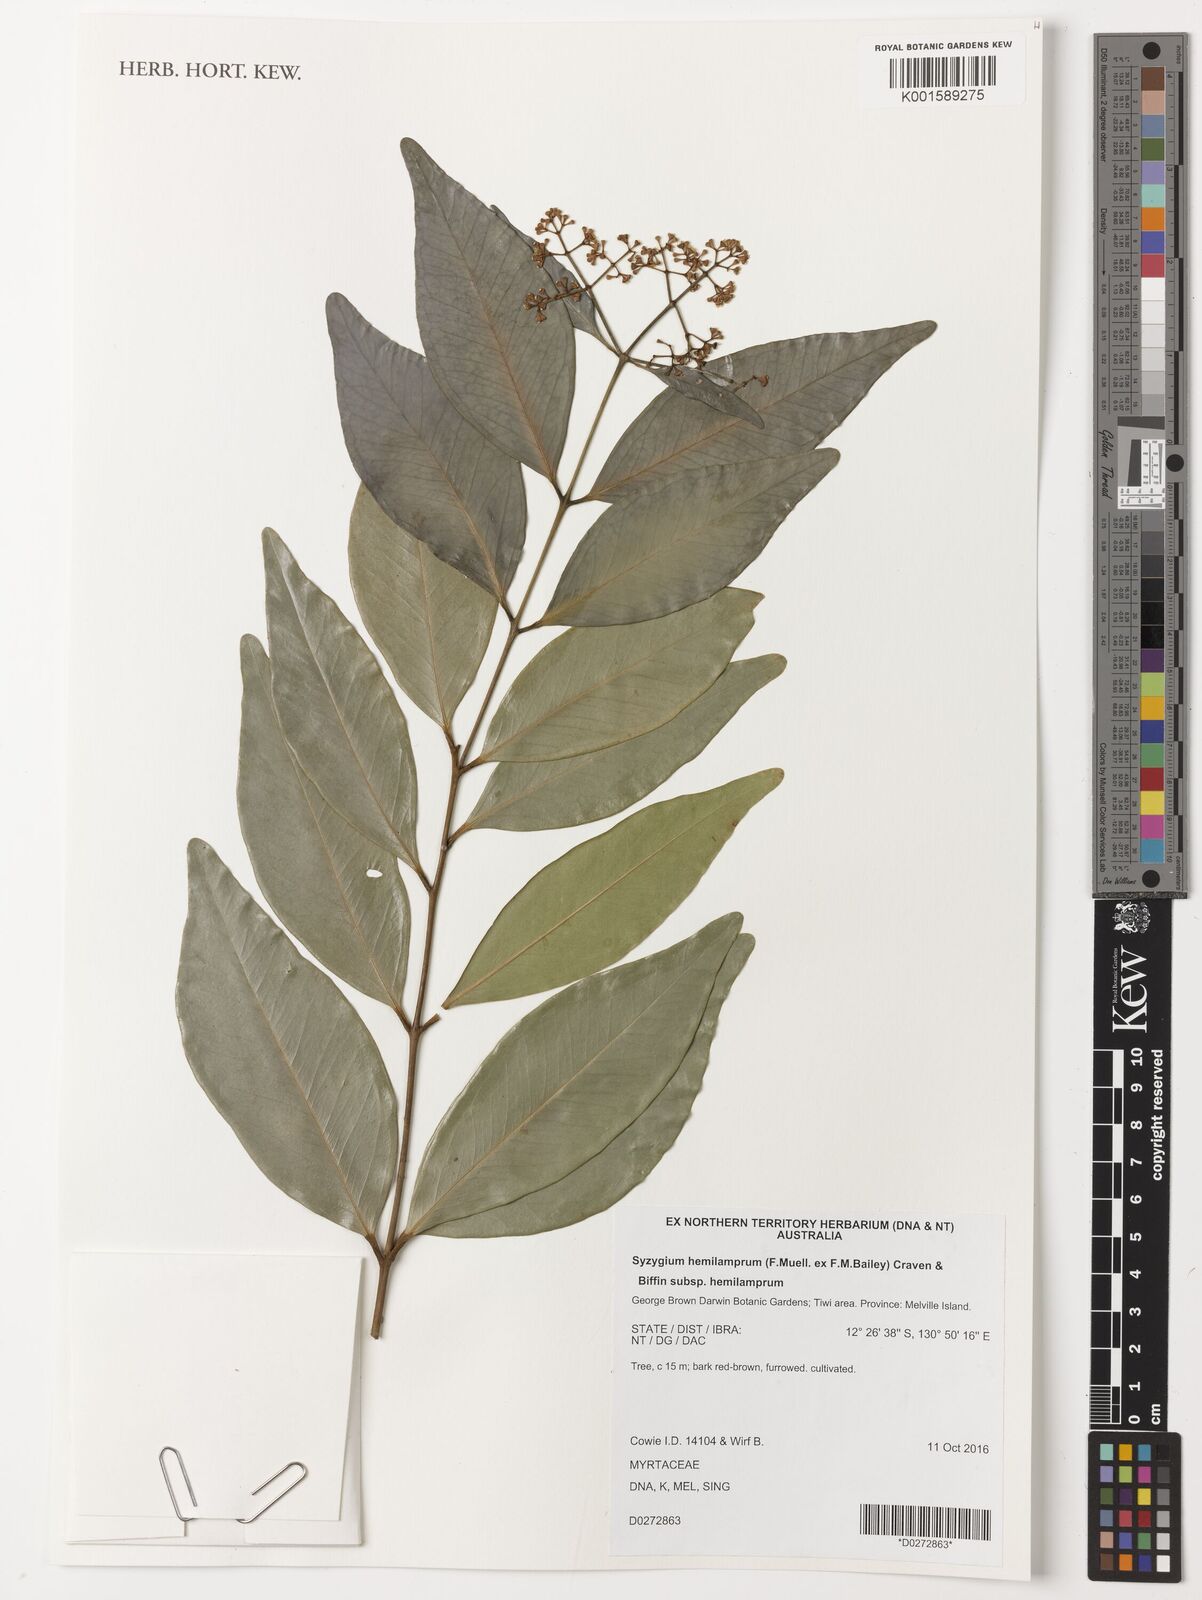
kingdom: Plantae
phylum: Tracheophyta
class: Magnoliopsida
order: Myrtales
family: Myrtaceae
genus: Syzygium
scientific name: Syzygium hemilamprum
